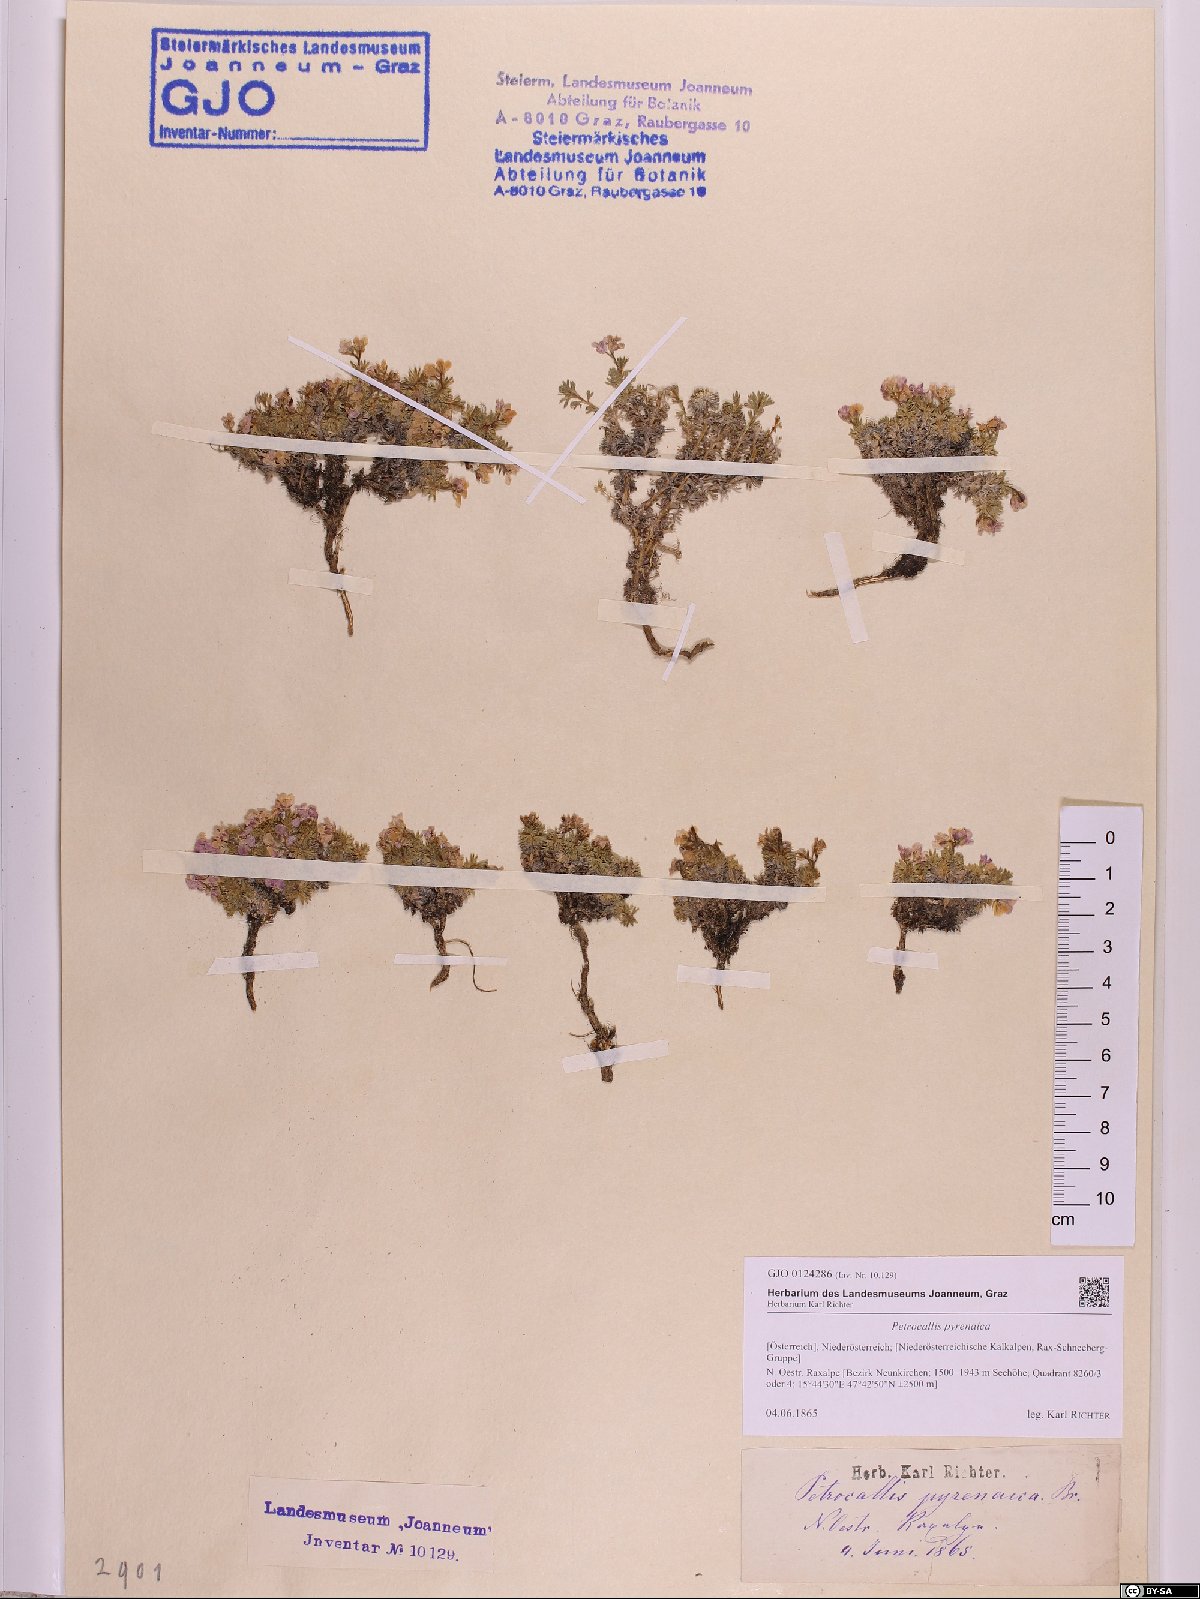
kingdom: Plantae
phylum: Tracheophyta
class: Magnoliopsida
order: Brassicales
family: Brassicaceae
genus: Petrocallis
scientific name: Petrocallis pyrenaica
